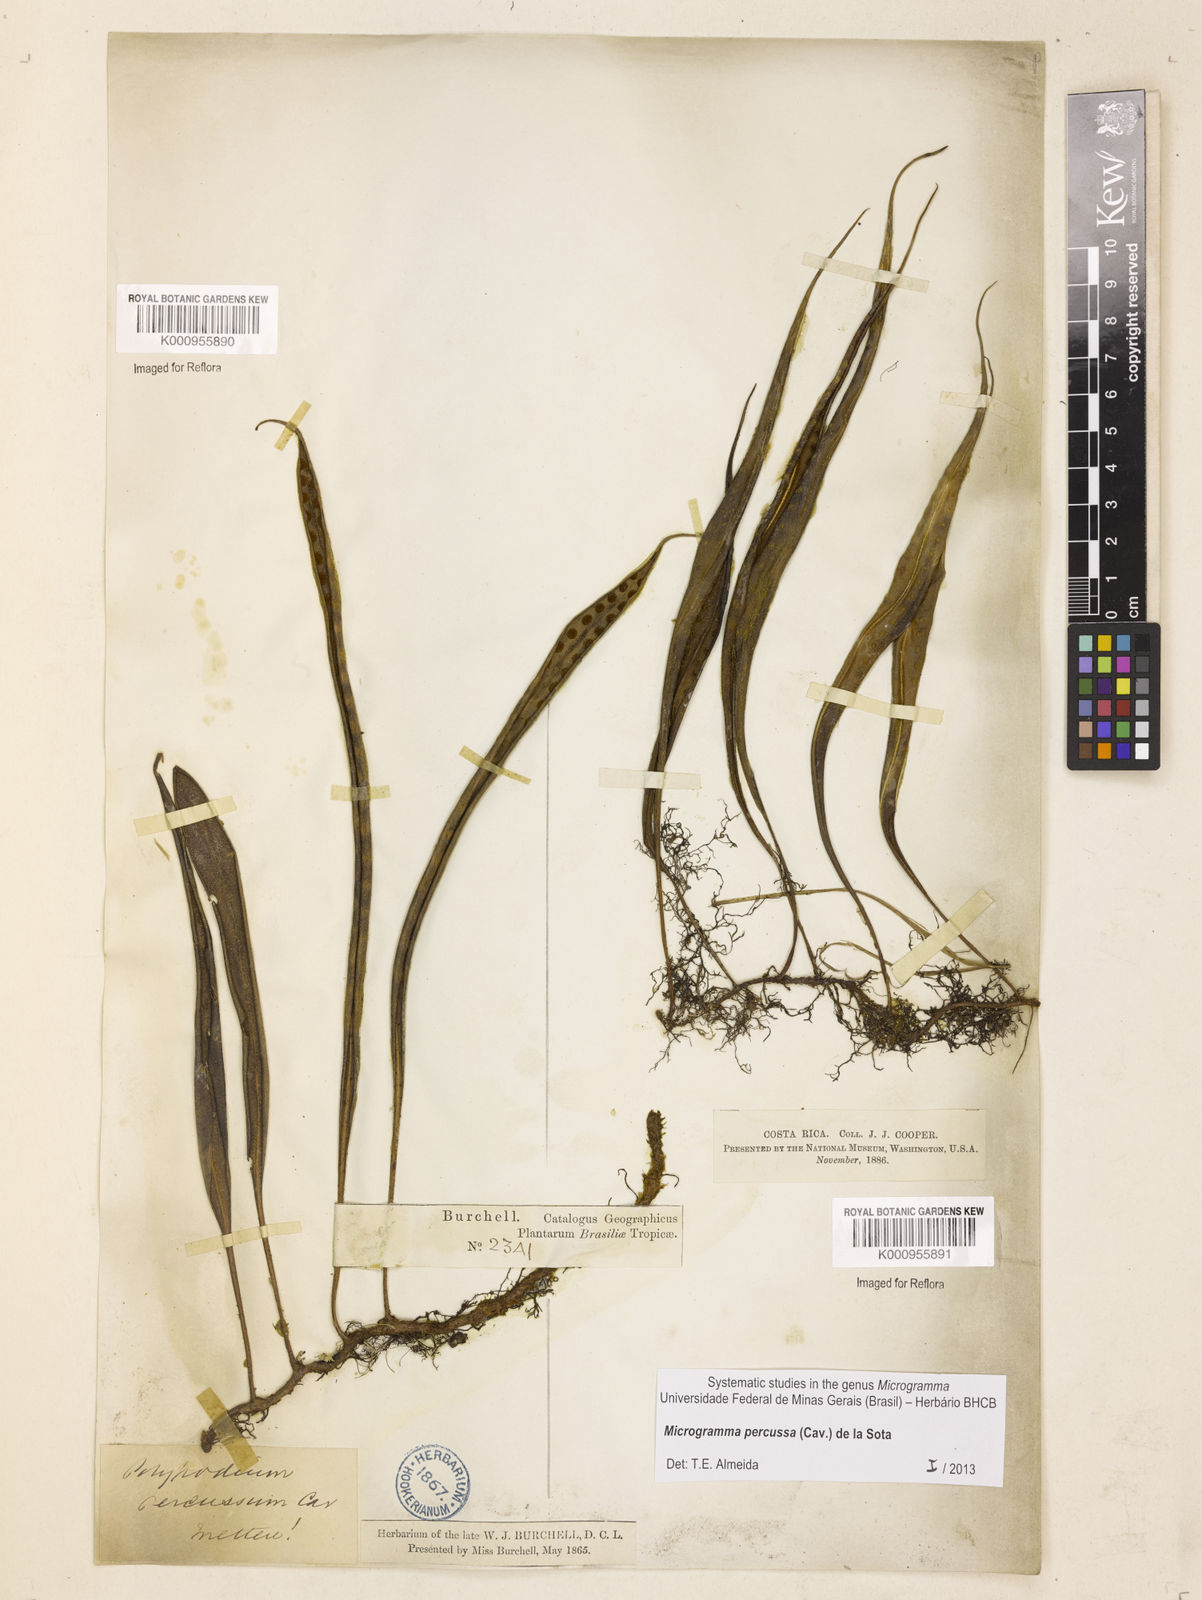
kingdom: Plantae
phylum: Tracheophyta
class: Polypodiopsida
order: Polypodiales
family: Polypodiaceae
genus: Microgramma
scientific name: Microgramma percussa
